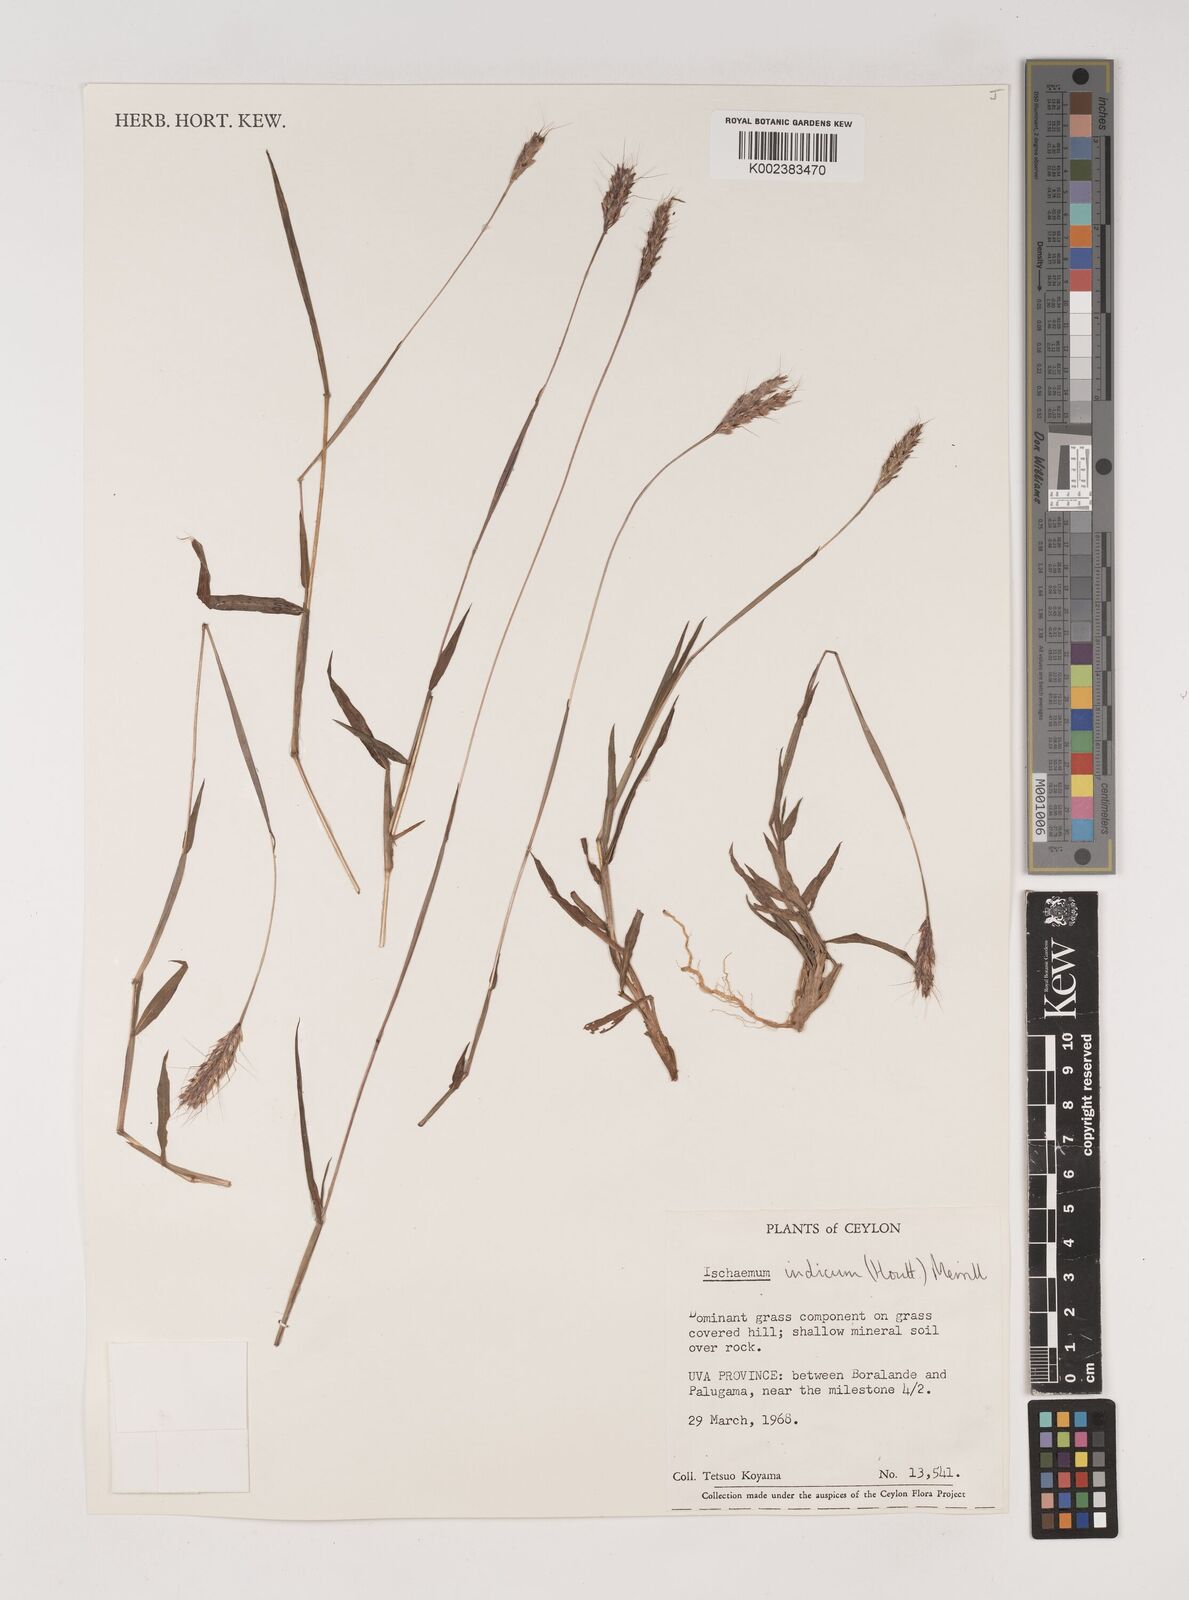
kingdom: Plantae
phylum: Tracheophyta
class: Liliopsida
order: Poales
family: Poaceae
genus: Polytrias
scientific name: Polytrias indica
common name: Indian murainagrass
